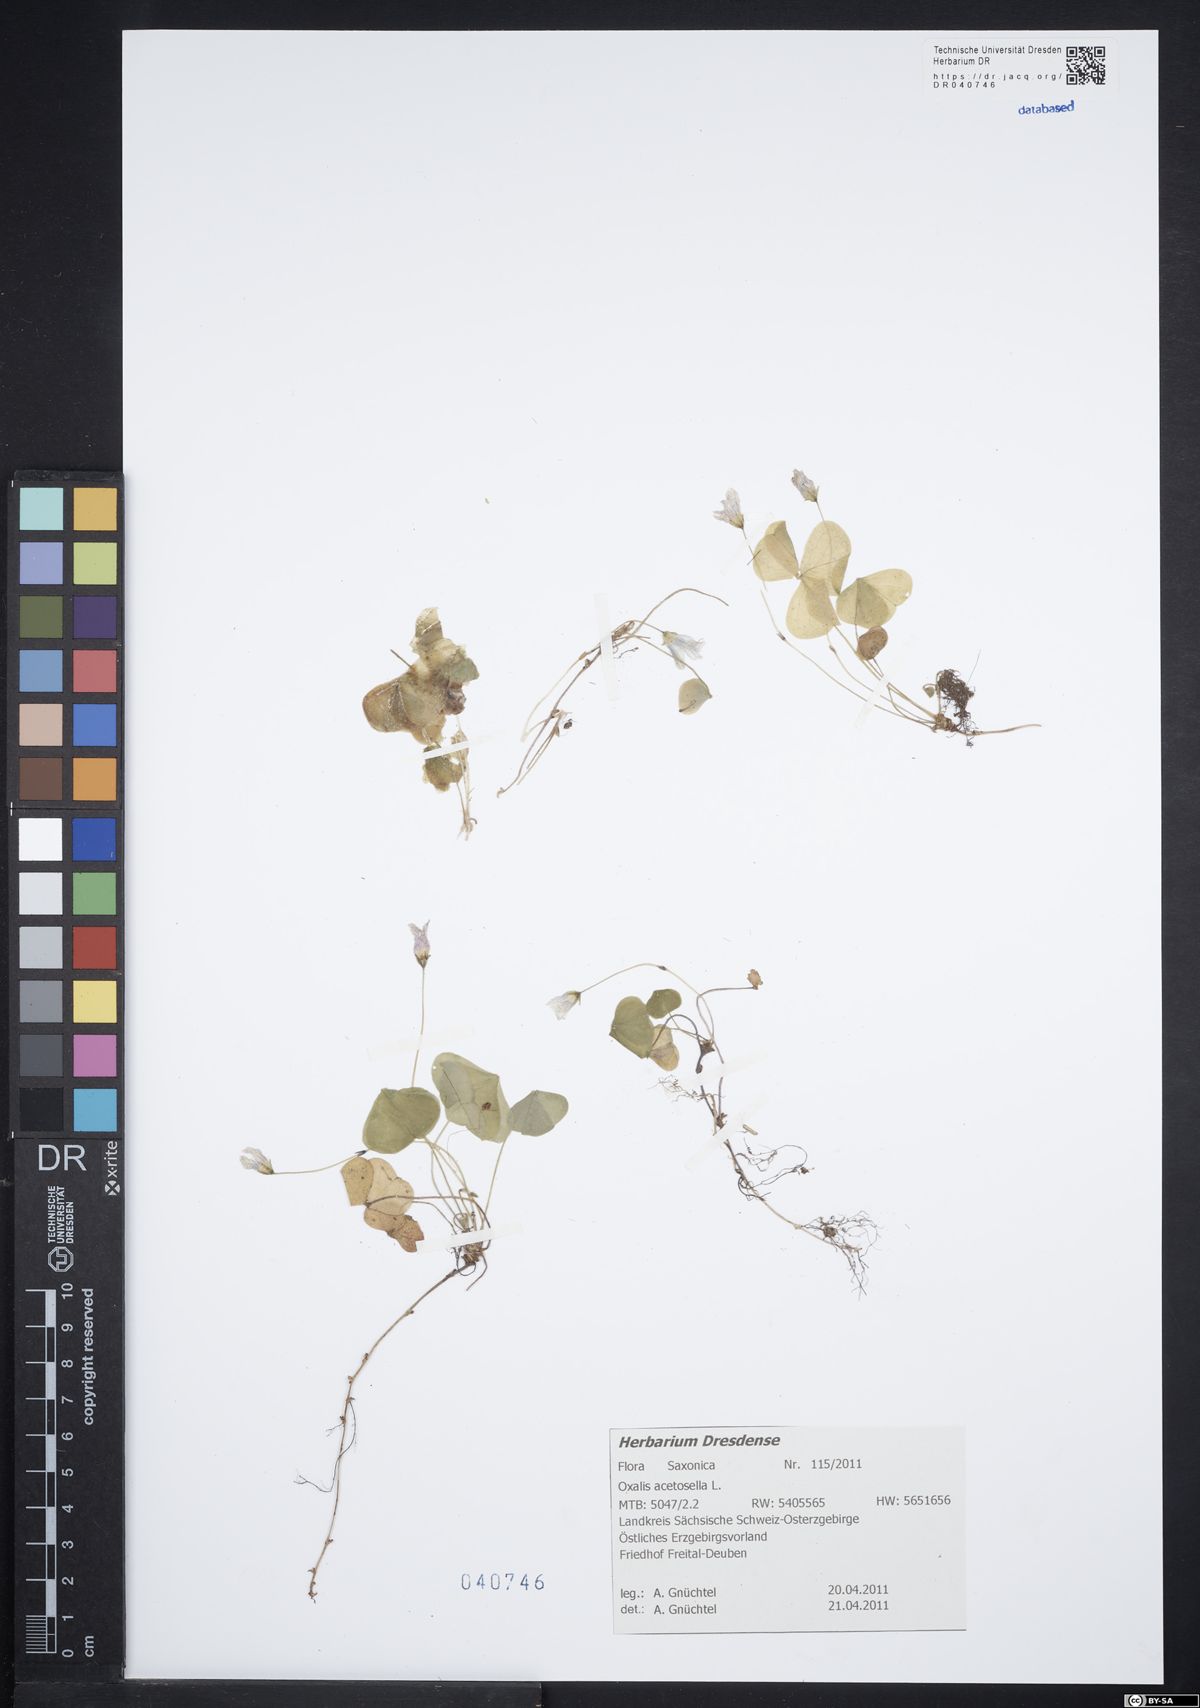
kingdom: Plantae
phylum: Tracheophyta
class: Magnoliopsida
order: Oxalidales
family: Oxalidaceae
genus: Oxalis
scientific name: Oxalis acetosella
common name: Wood-sorrel
